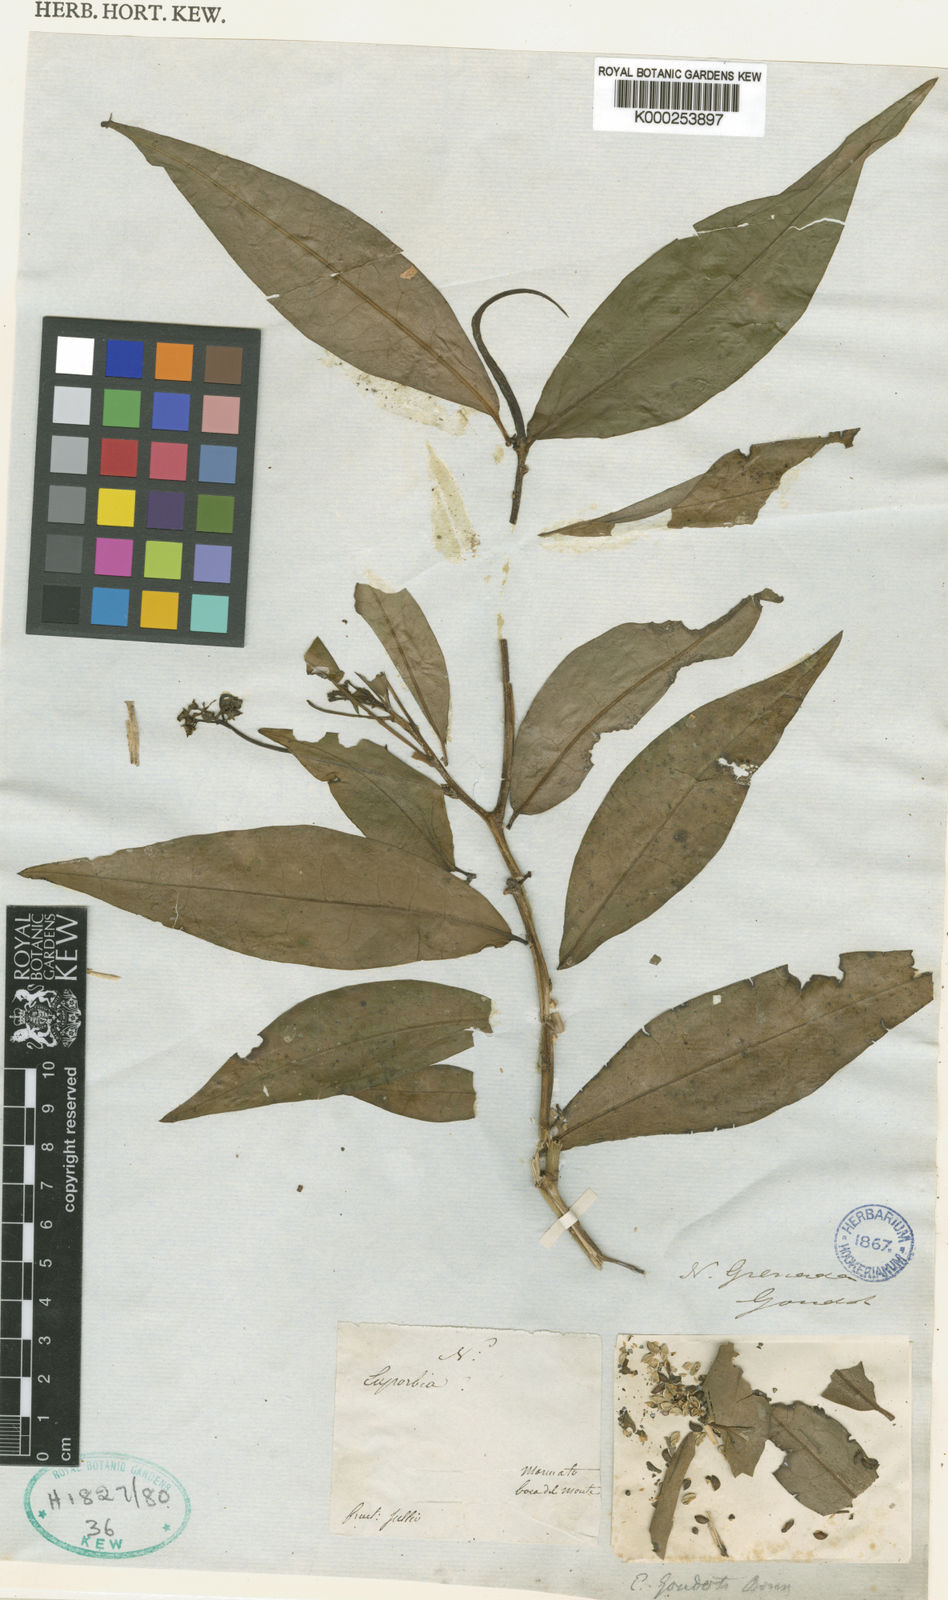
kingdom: Plantae
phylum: Tracheophyta
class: Magnoliopsida
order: Malpighiales
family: Euphorbiaceae
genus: Euphorbia
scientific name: Euphorbia laurifolia
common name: Lechero
